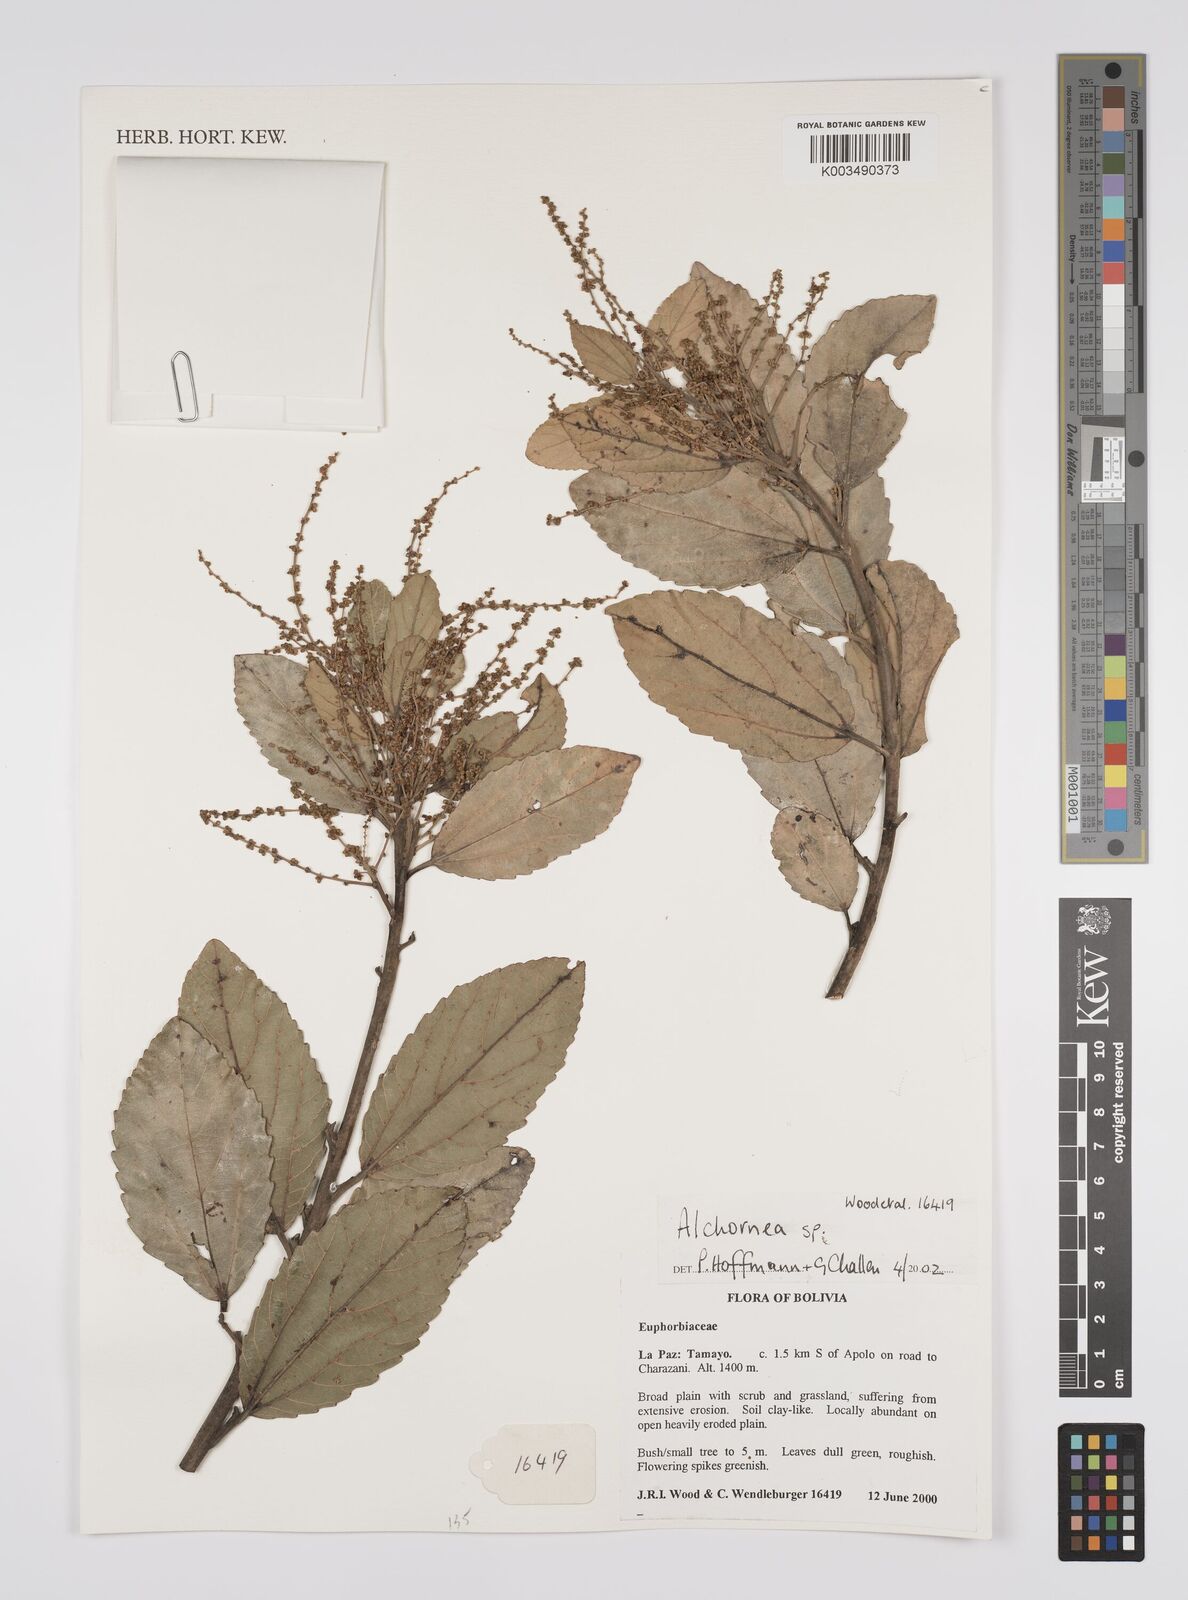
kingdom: Plantae
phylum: Tracheophyta
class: Magnoliopsida
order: Malpighiales
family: Euphorbiaceae
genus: Alchornea
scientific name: Alchornea
